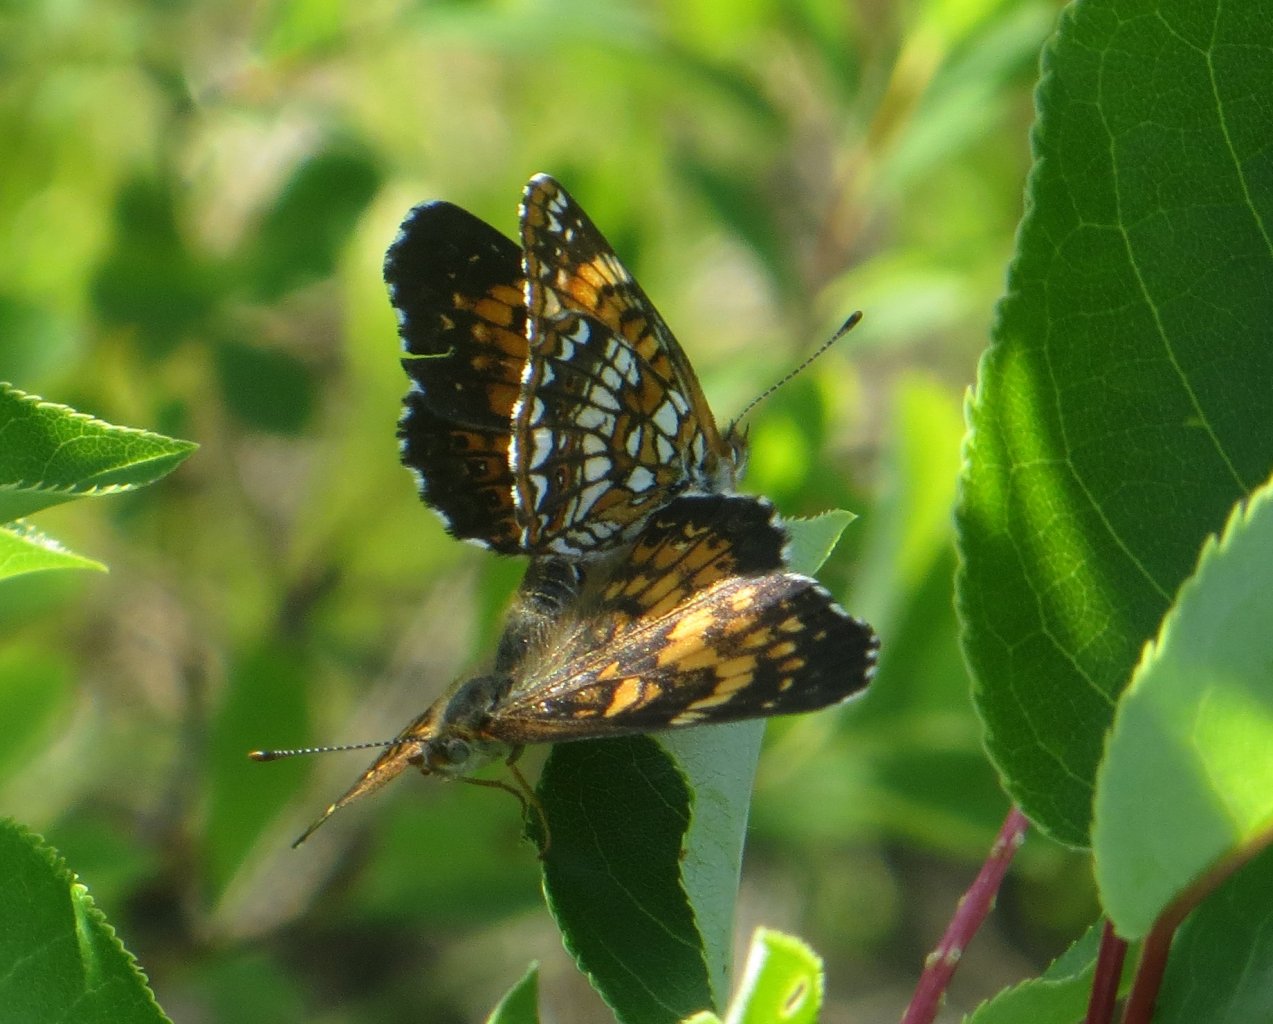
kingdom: Animalia
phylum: Arthropoda
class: Insecta
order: Lepidoptera
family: Nymphalidae
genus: Chlosyne
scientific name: Chlosyne harrisii
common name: Harris's Checkerspot
